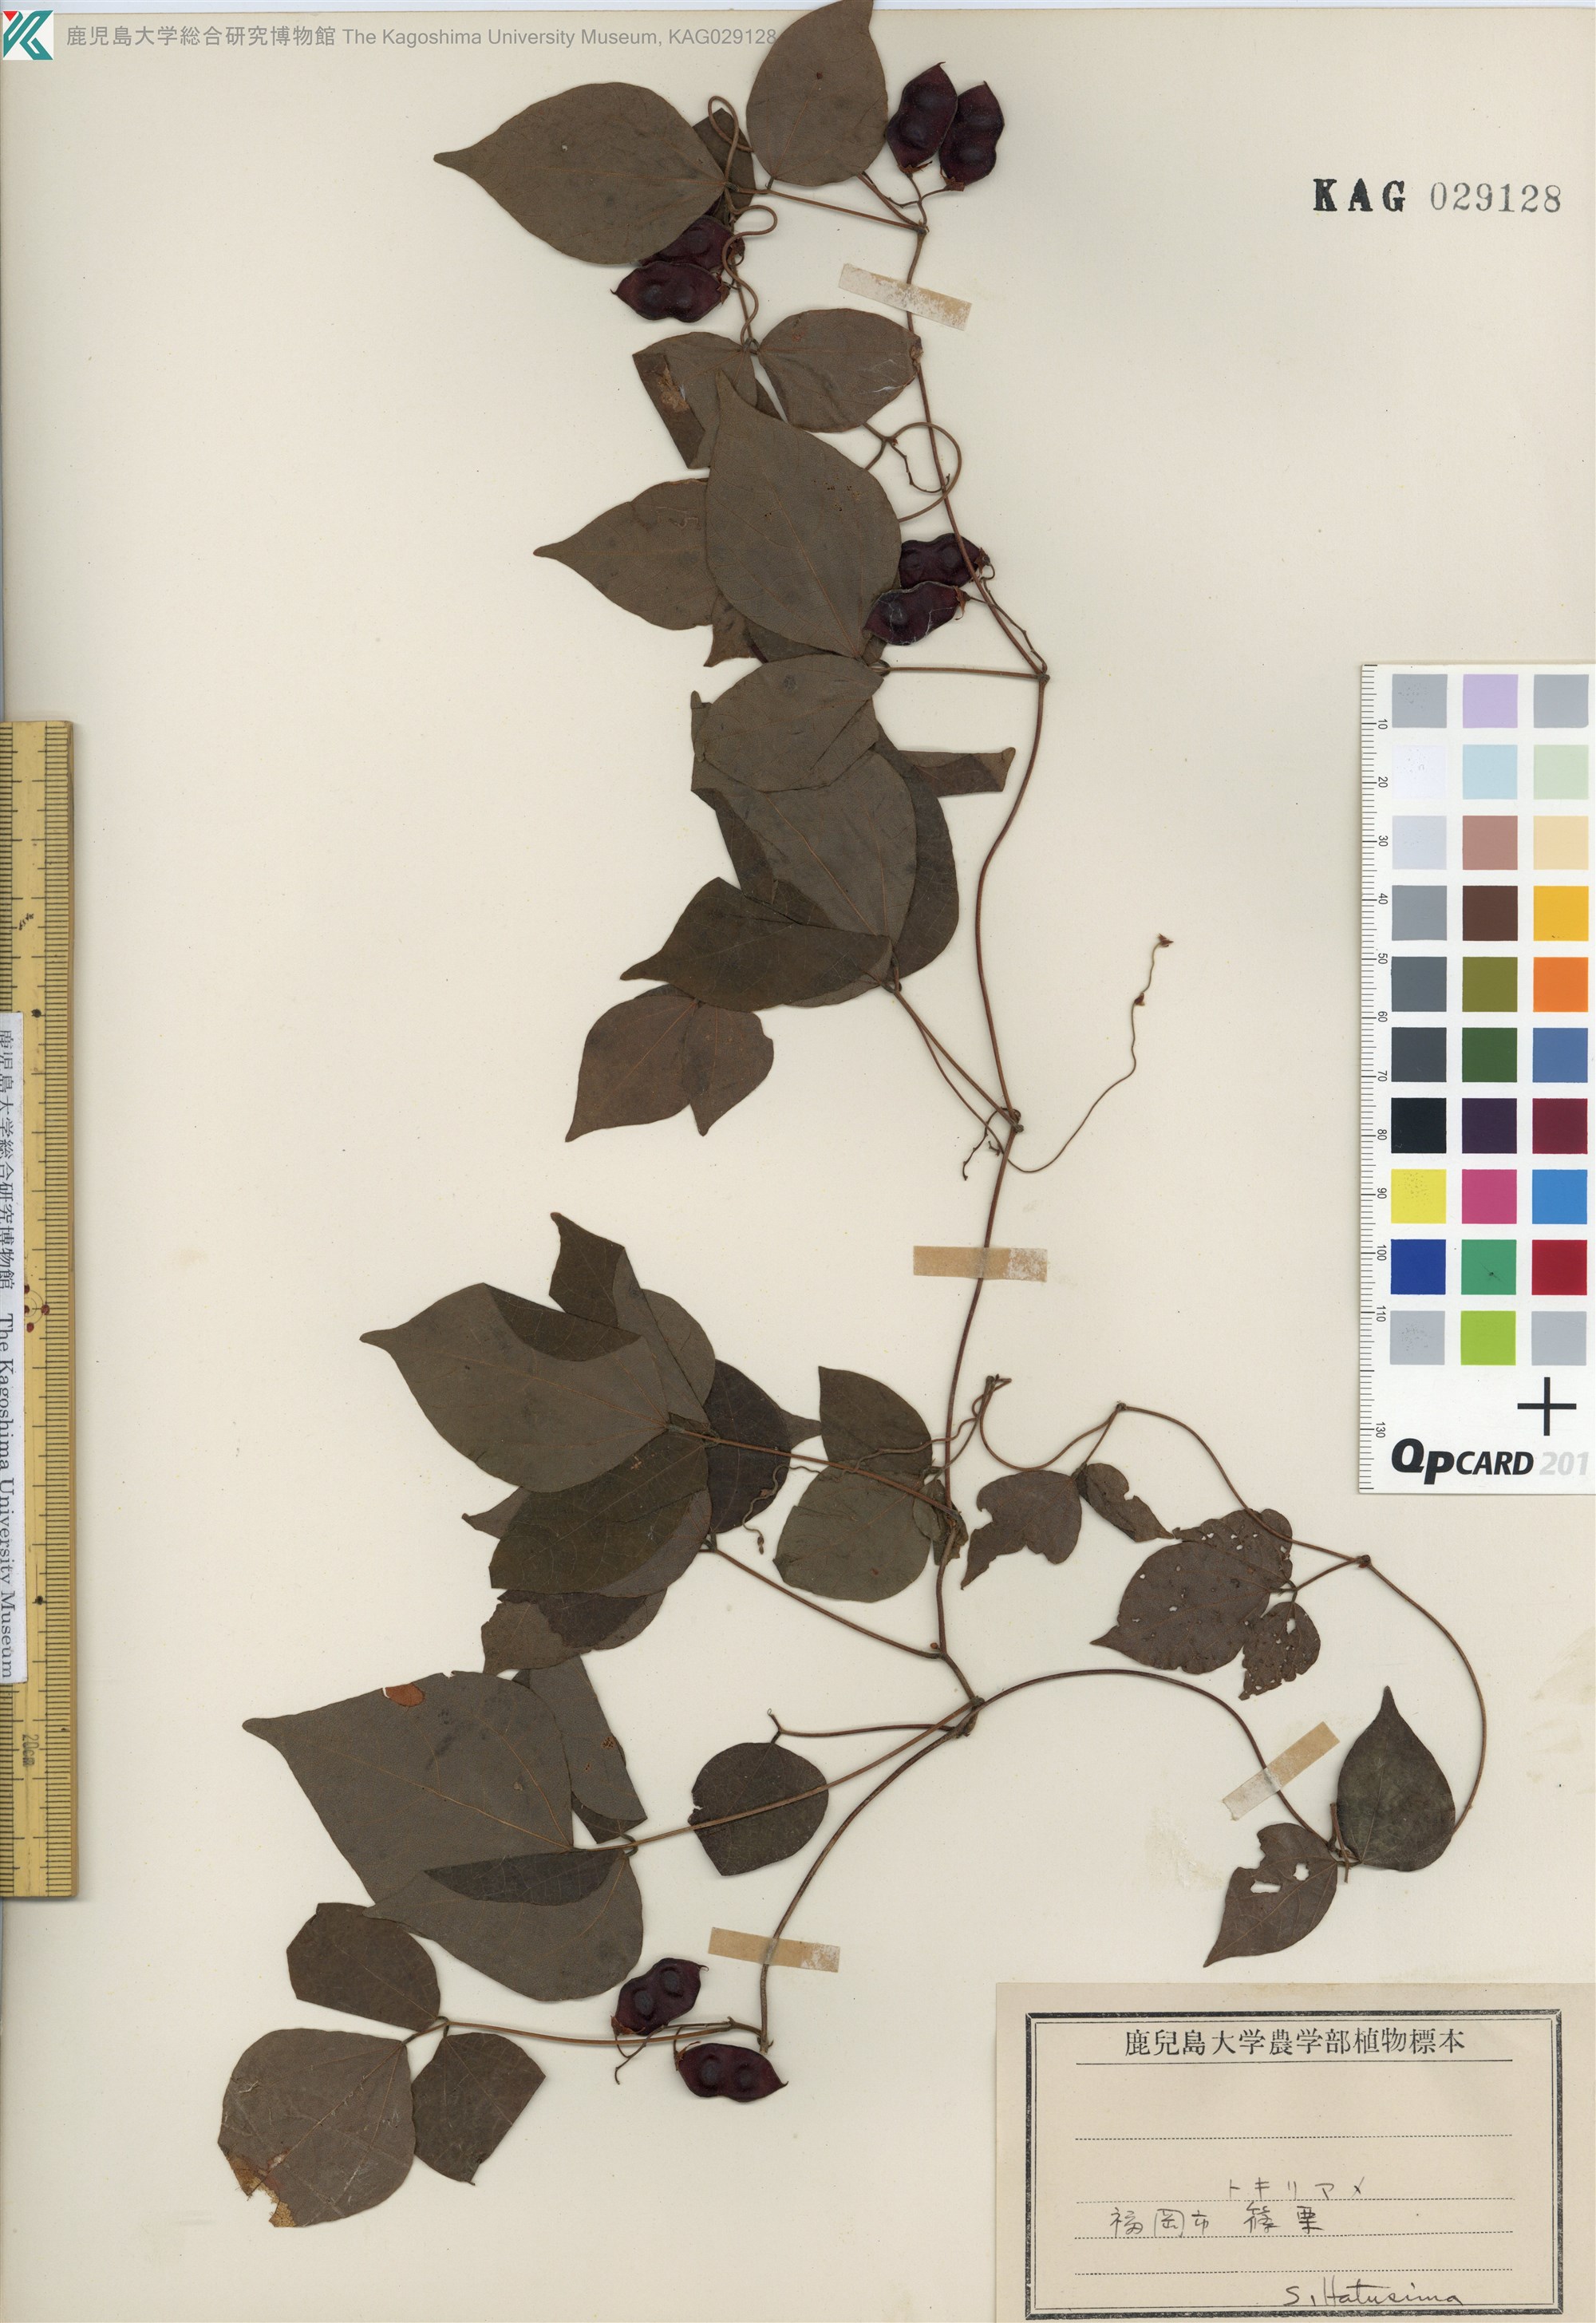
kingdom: Plantae
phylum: Tracheophyta
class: Magnoliopsida
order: Fabales
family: Fabaceae
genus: Rhynchosia
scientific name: Rhynchosia acuminatifolia
